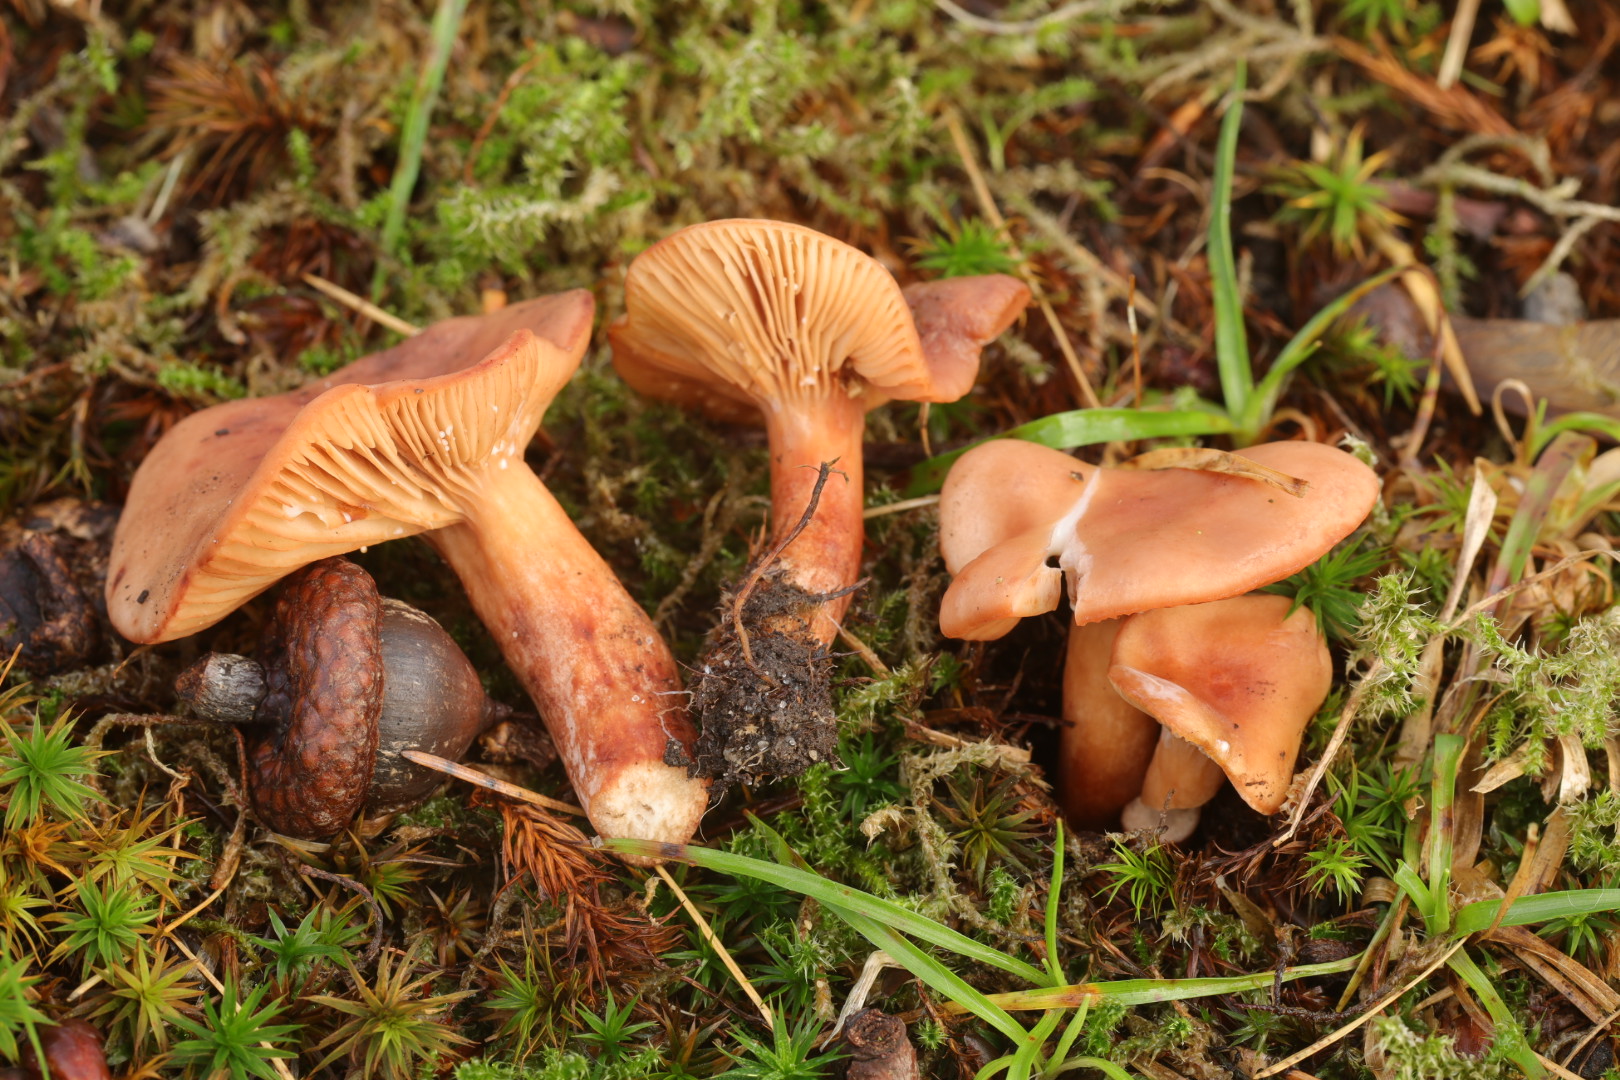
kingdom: Fungi
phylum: Basidiomycota
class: Agaricomycetes
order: Russulales
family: Russulaceae
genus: Lactarius
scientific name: Lactarius decipiens
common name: pelargonie-mælkehat
